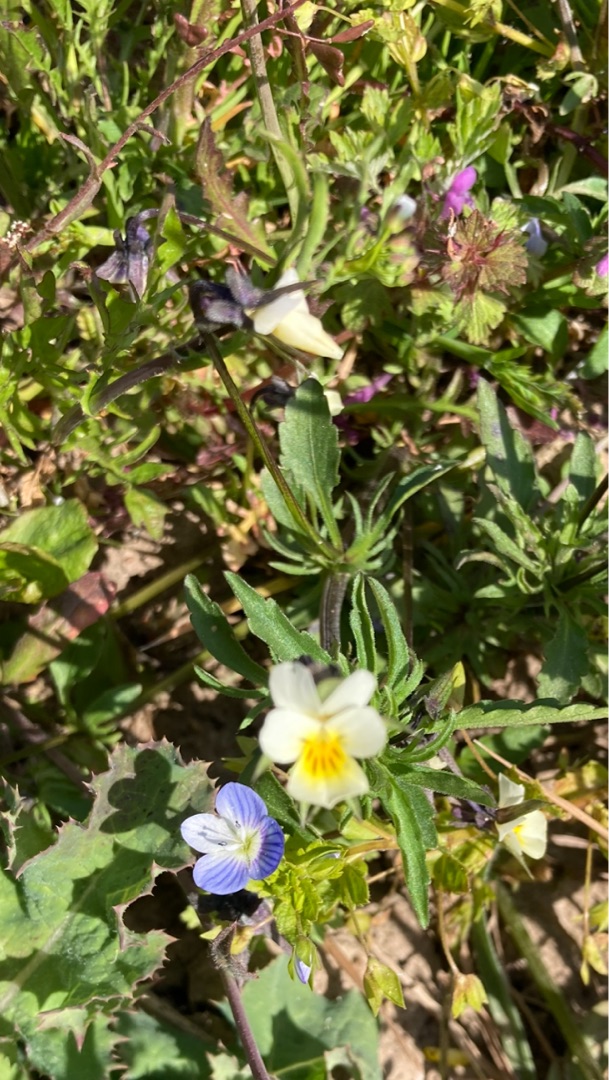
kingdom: Plantae
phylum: Tracheophyta
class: Magnoliopsida
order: Malpighiales
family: Violaceae
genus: Viola
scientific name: Viola arvensis
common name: Ager-stedmoderblomst
